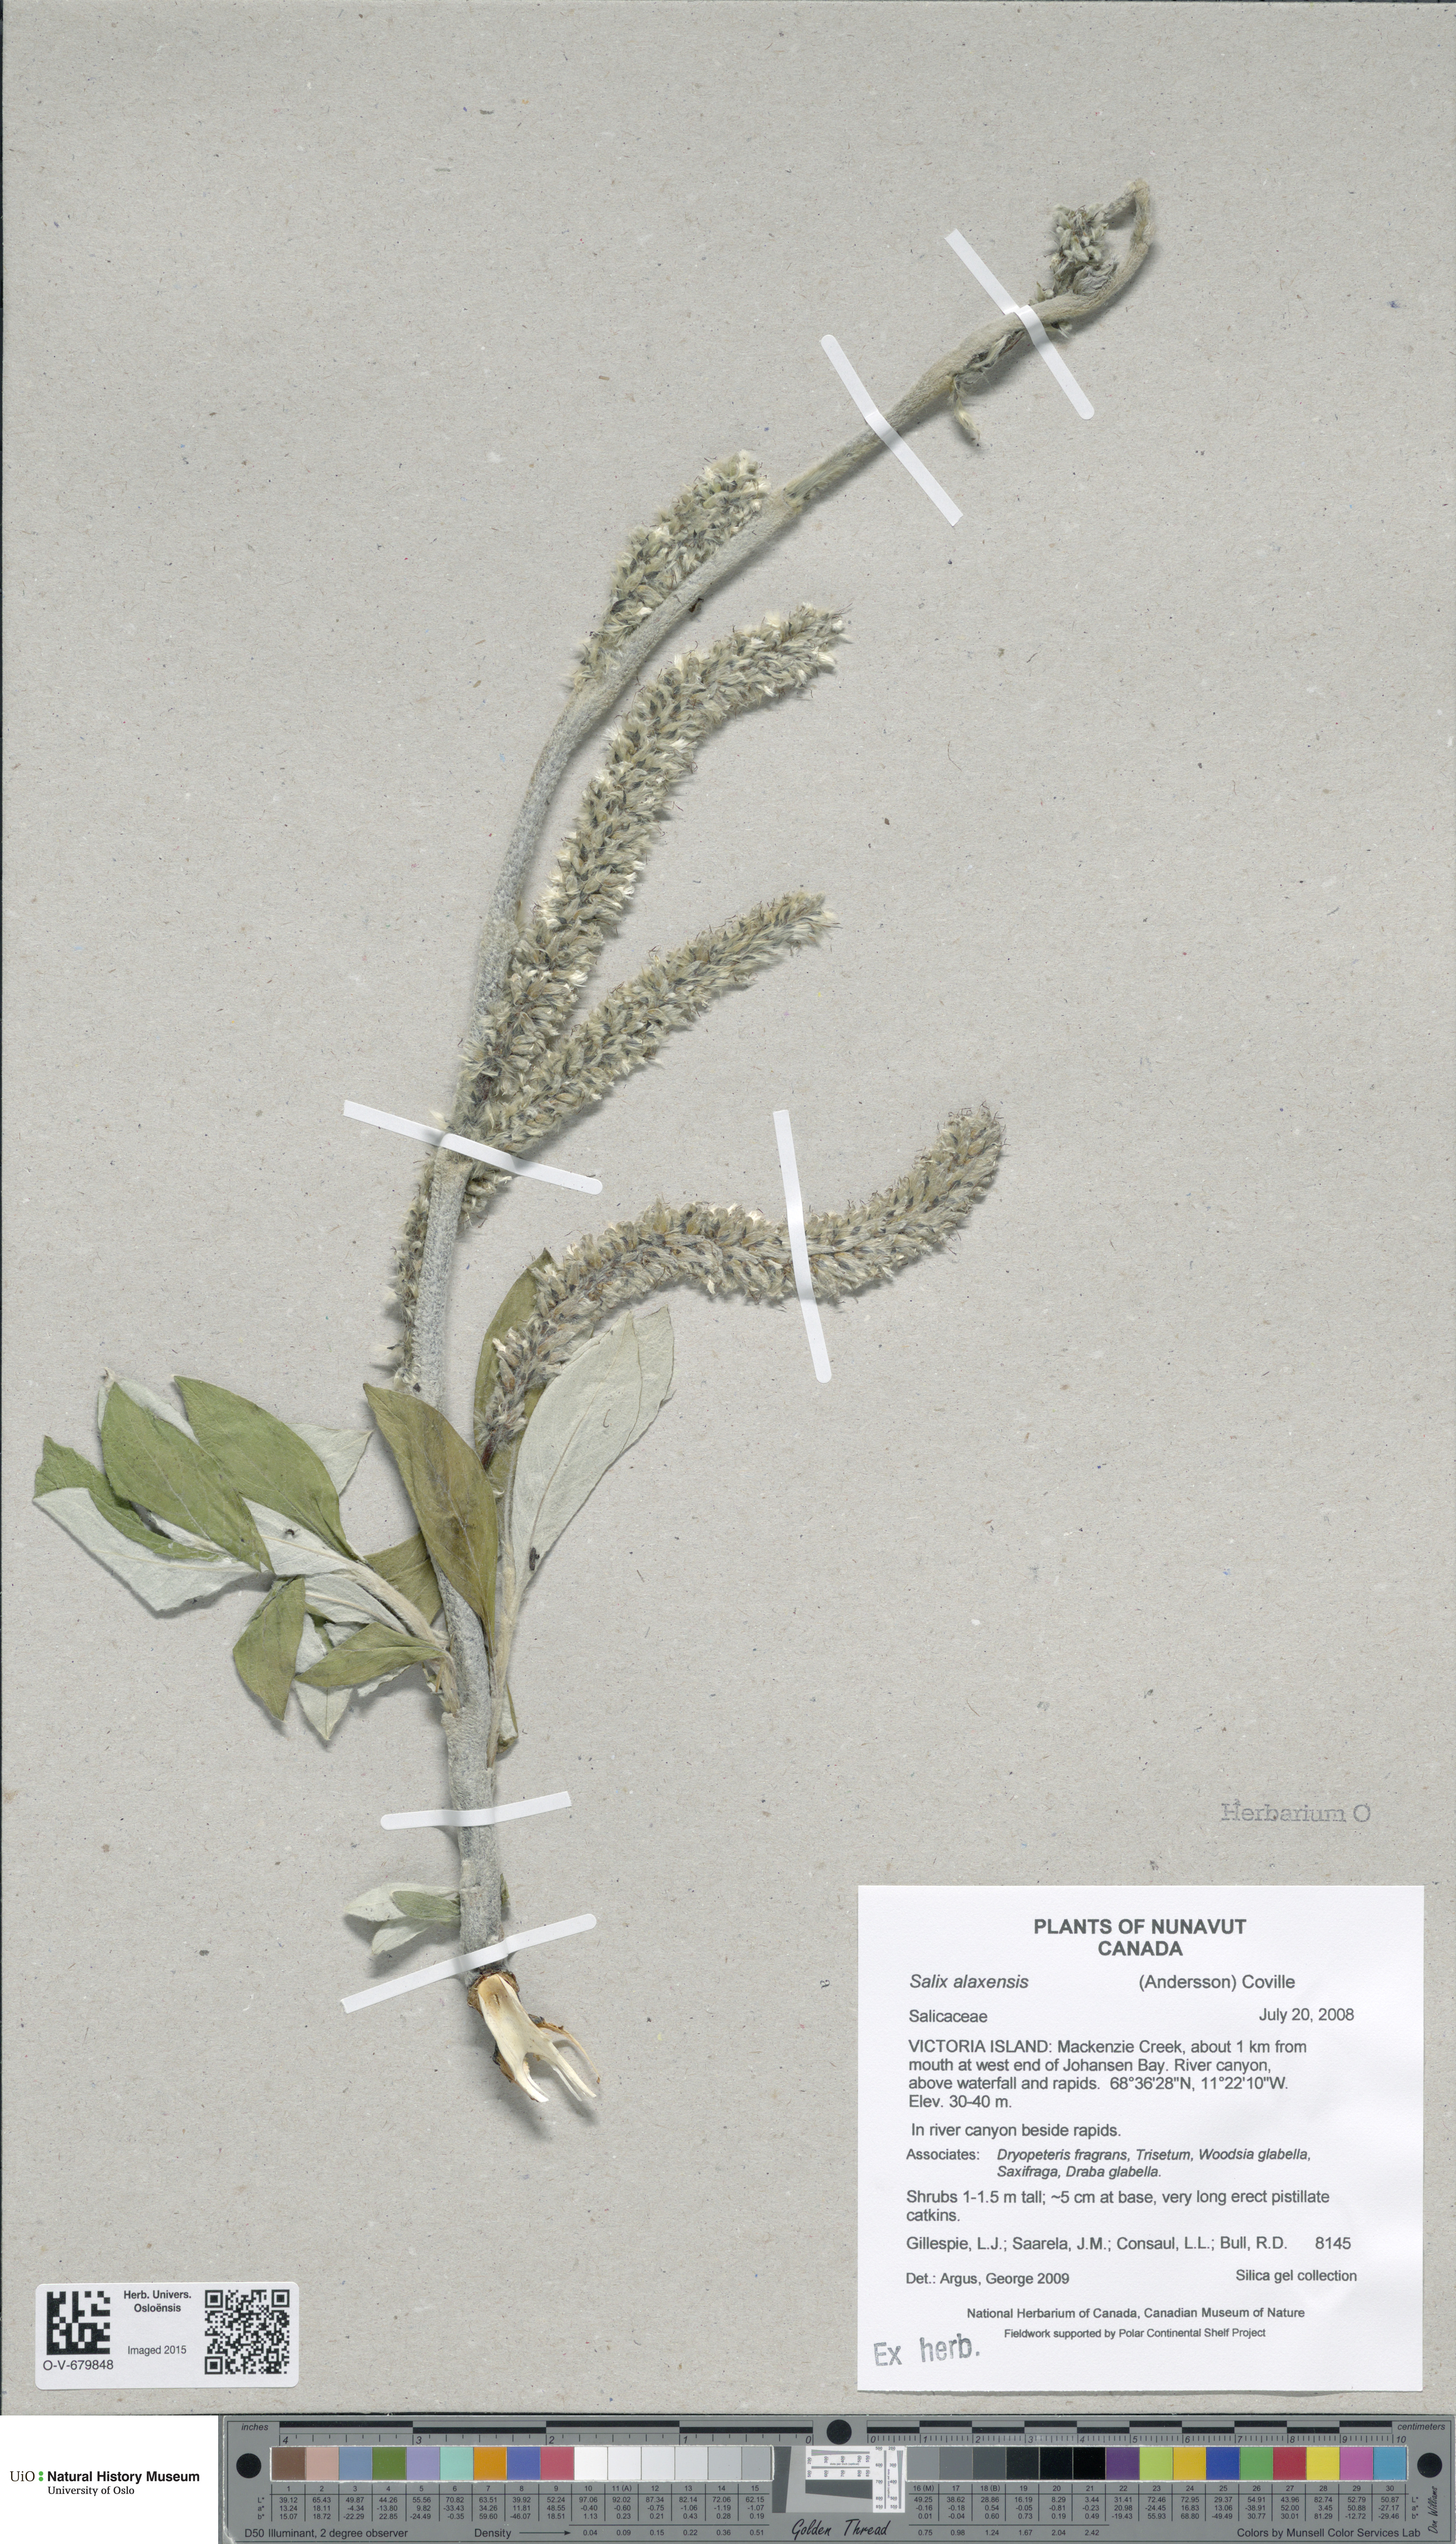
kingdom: Plantae
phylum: Tracheophyta
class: Magnoliopsida
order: Malpighiales
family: Salicaceae
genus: Salix
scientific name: Salix alaxensis
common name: Feltleaf willow
